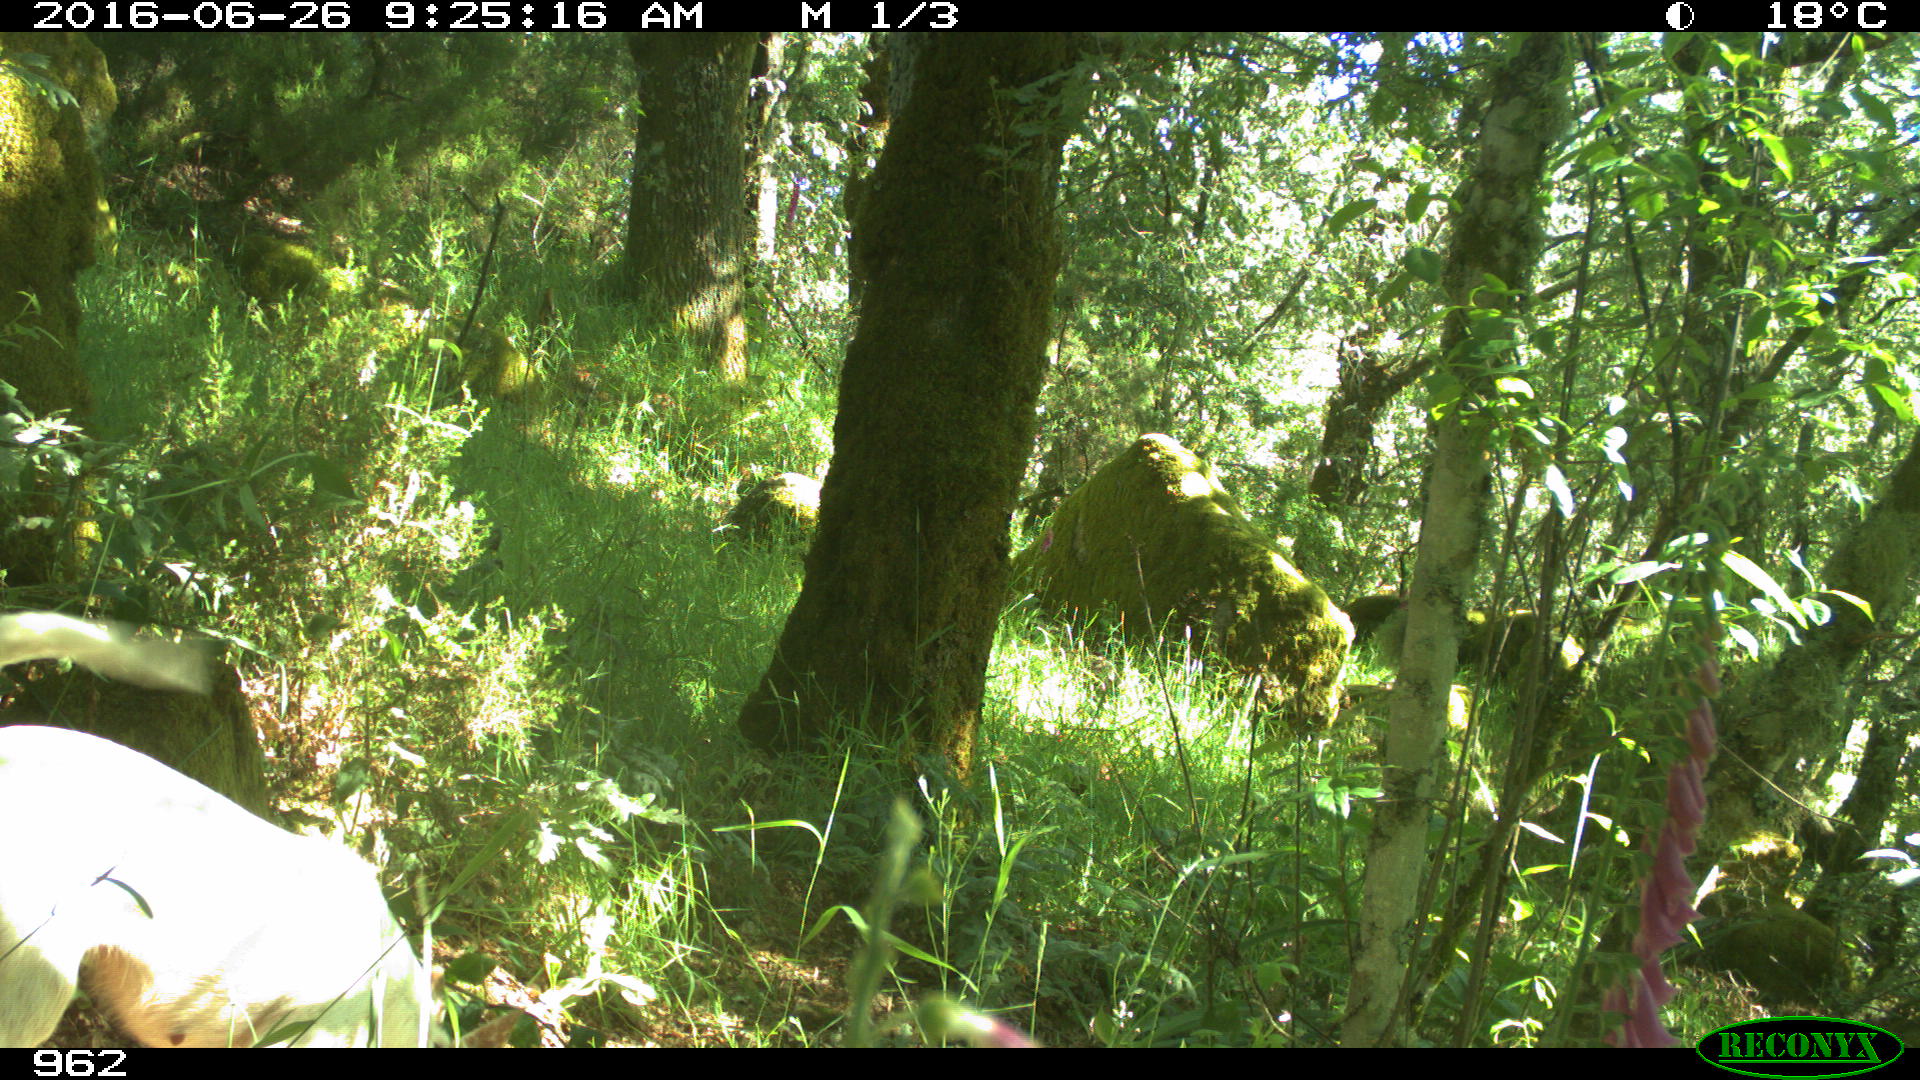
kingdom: Animalia
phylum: Chordata
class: Mammalia
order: Carnivora
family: Canidae
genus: Canis
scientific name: Canis lupus
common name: Gray wolf
